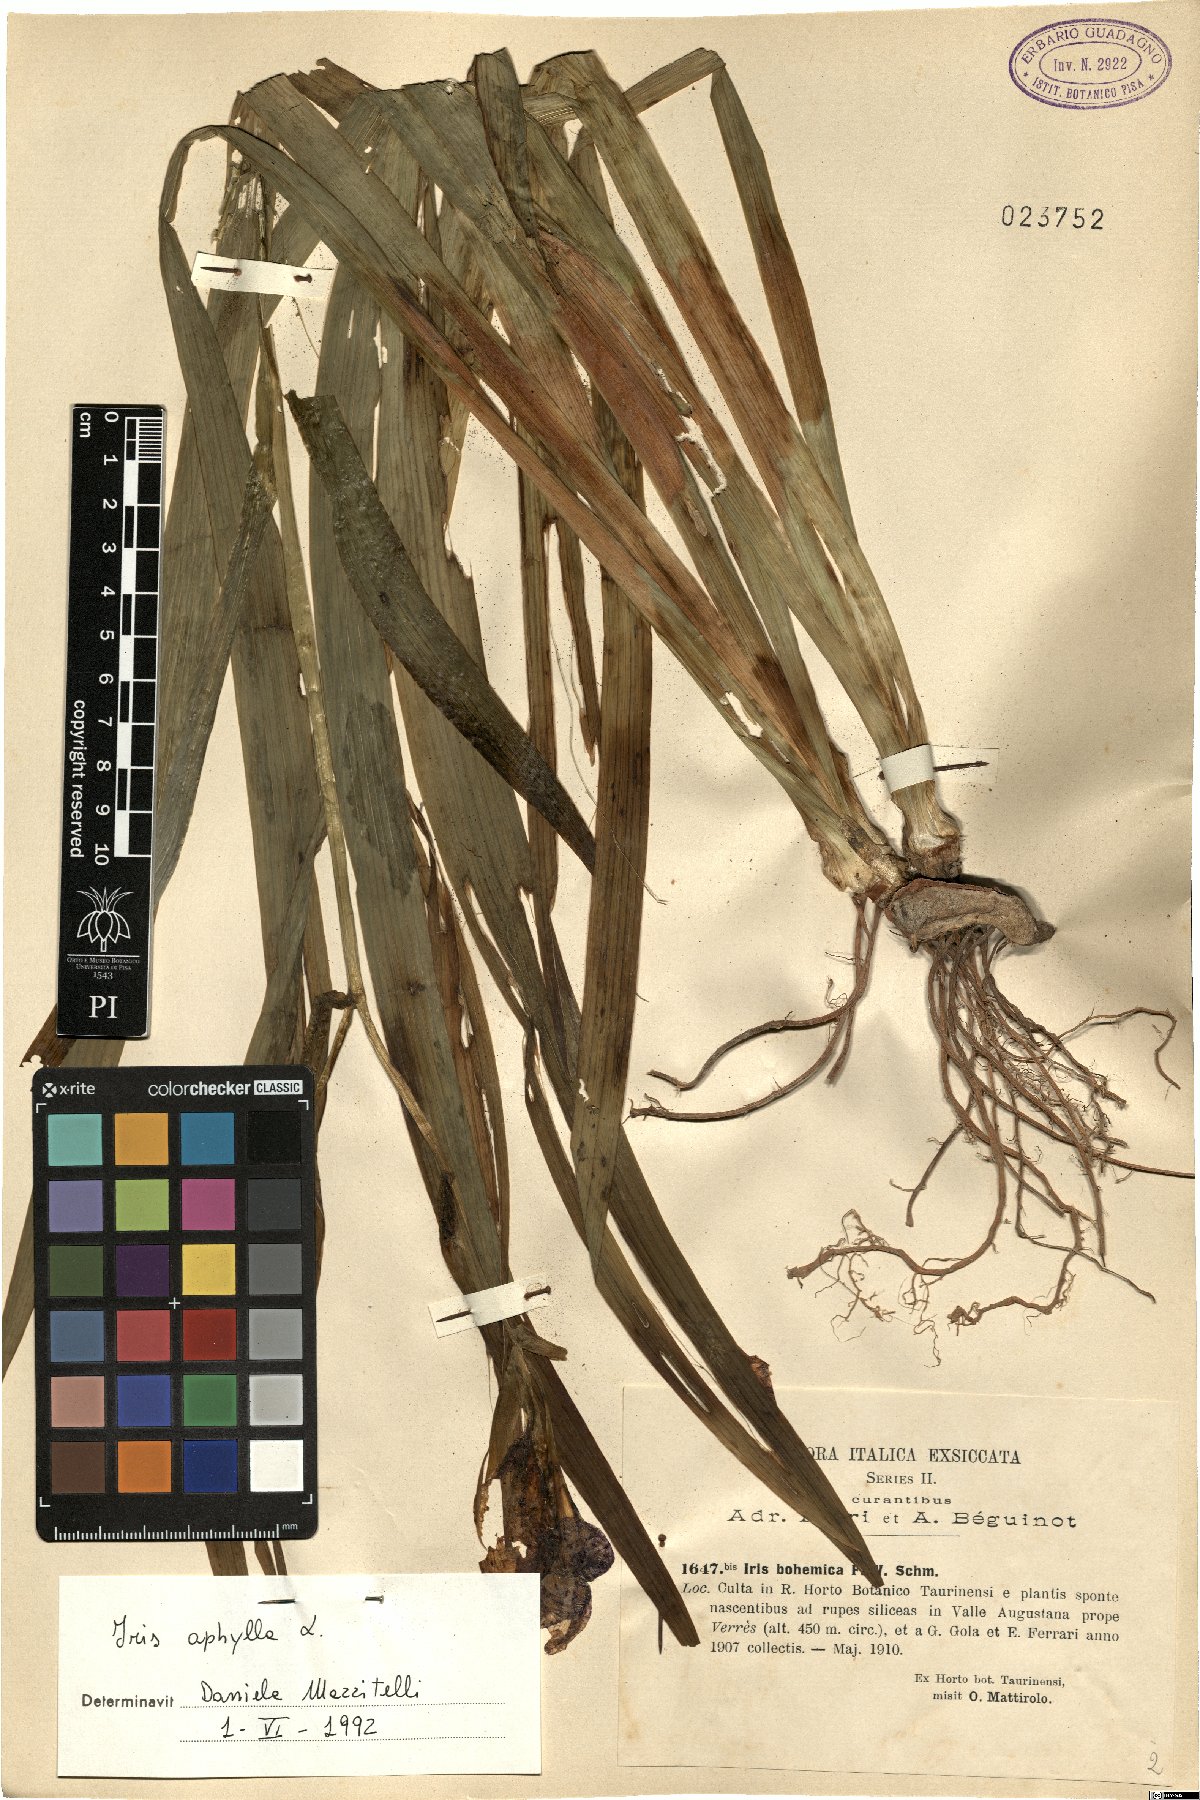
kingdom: Plantae
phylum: Tracheophyta
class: Liliopsida
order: Asparagales
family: Iridaceae
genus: Iris
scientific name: Iris aphylla
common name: Stool iris
